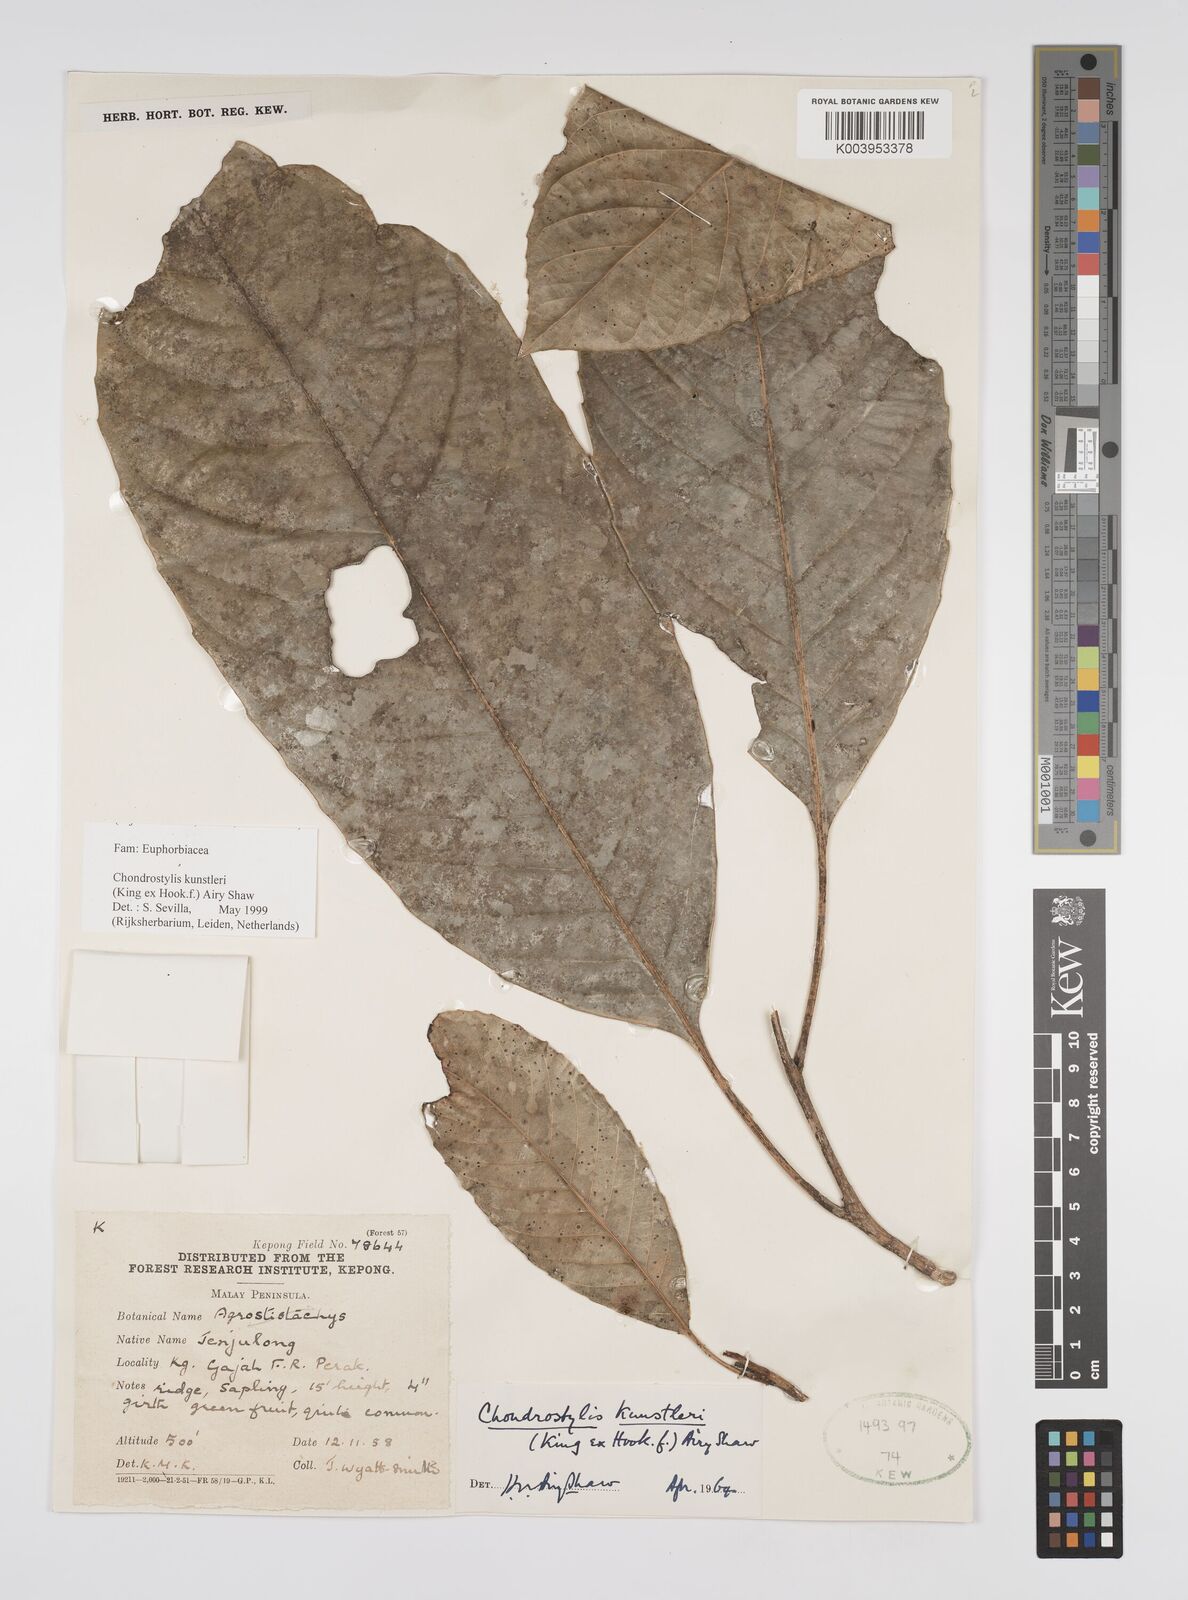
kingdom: Plantae
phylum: Tracheophyta
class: Magnoliopsida
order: Malpighiales
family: Euphorbiaceae
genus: Chondrostylis
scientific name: Chondrostylis kunstleri
